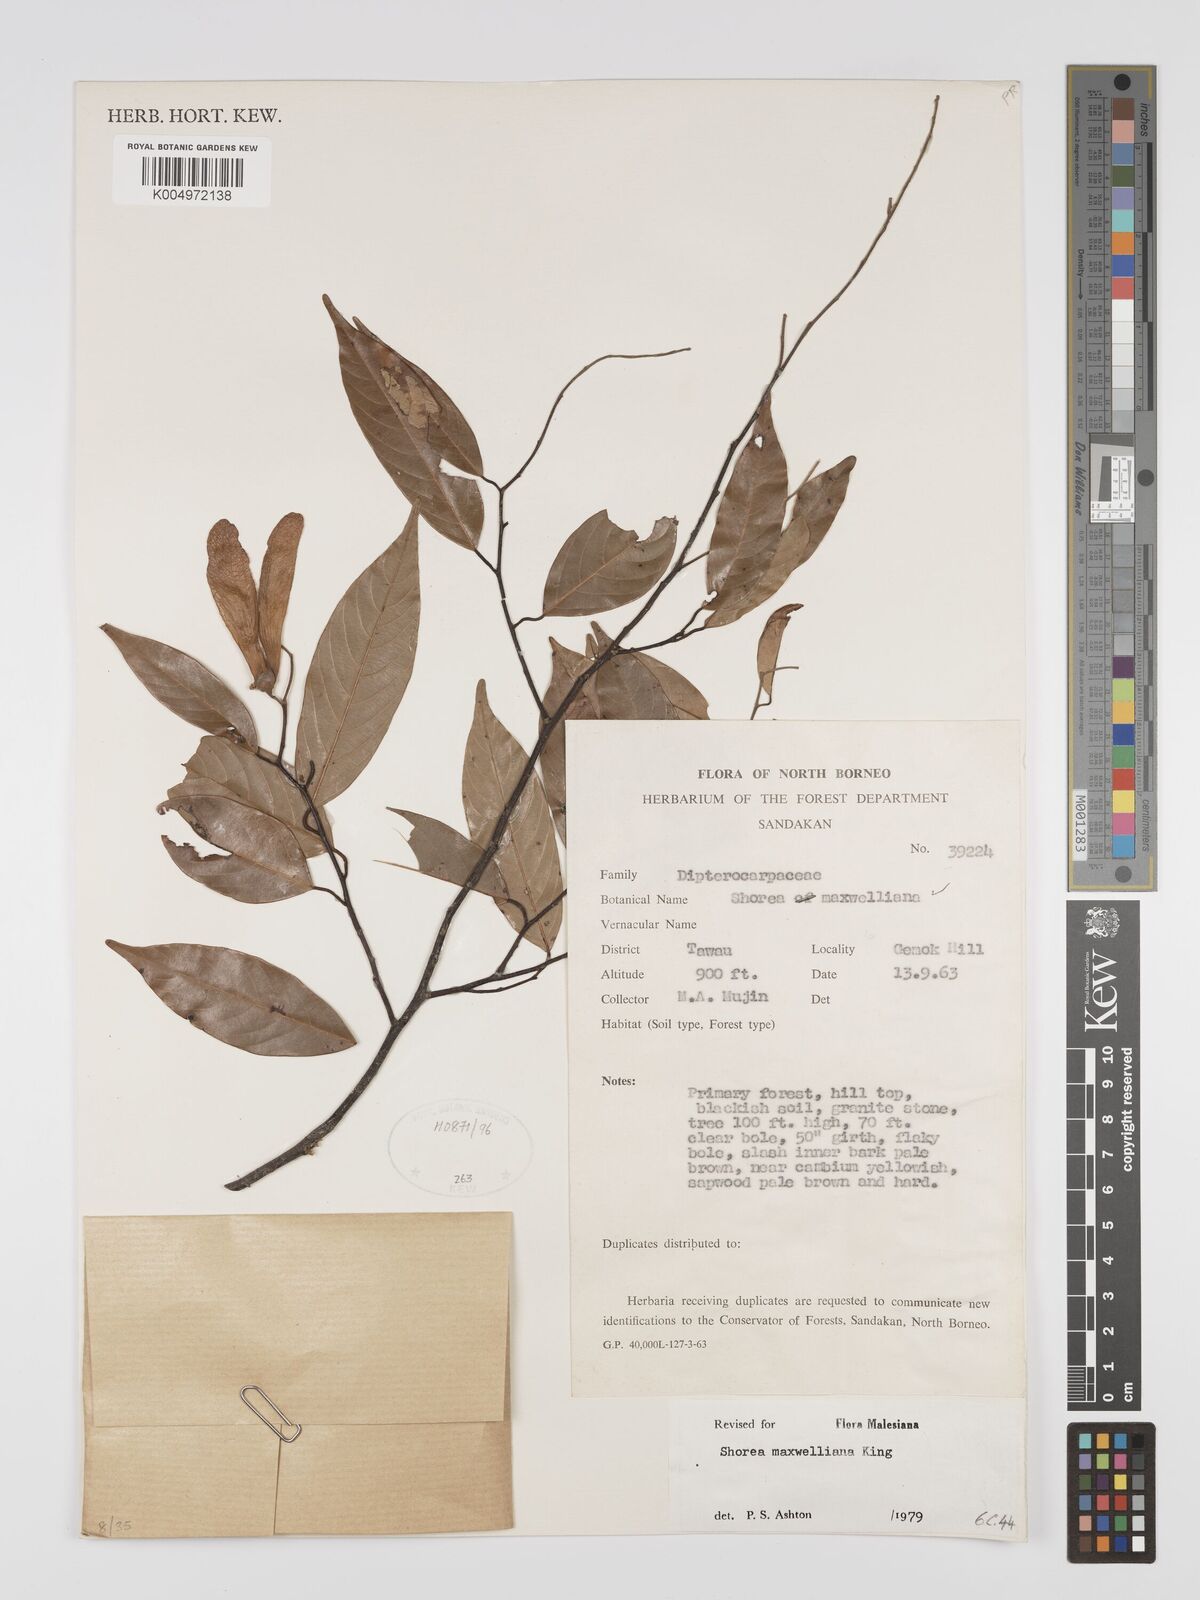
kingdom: Plantae
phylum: Tracheophyta
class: Magnoliopsida
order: Malvales
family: Dipterocarpaceae
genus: Shorea
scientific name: Shorea maxwelliana
